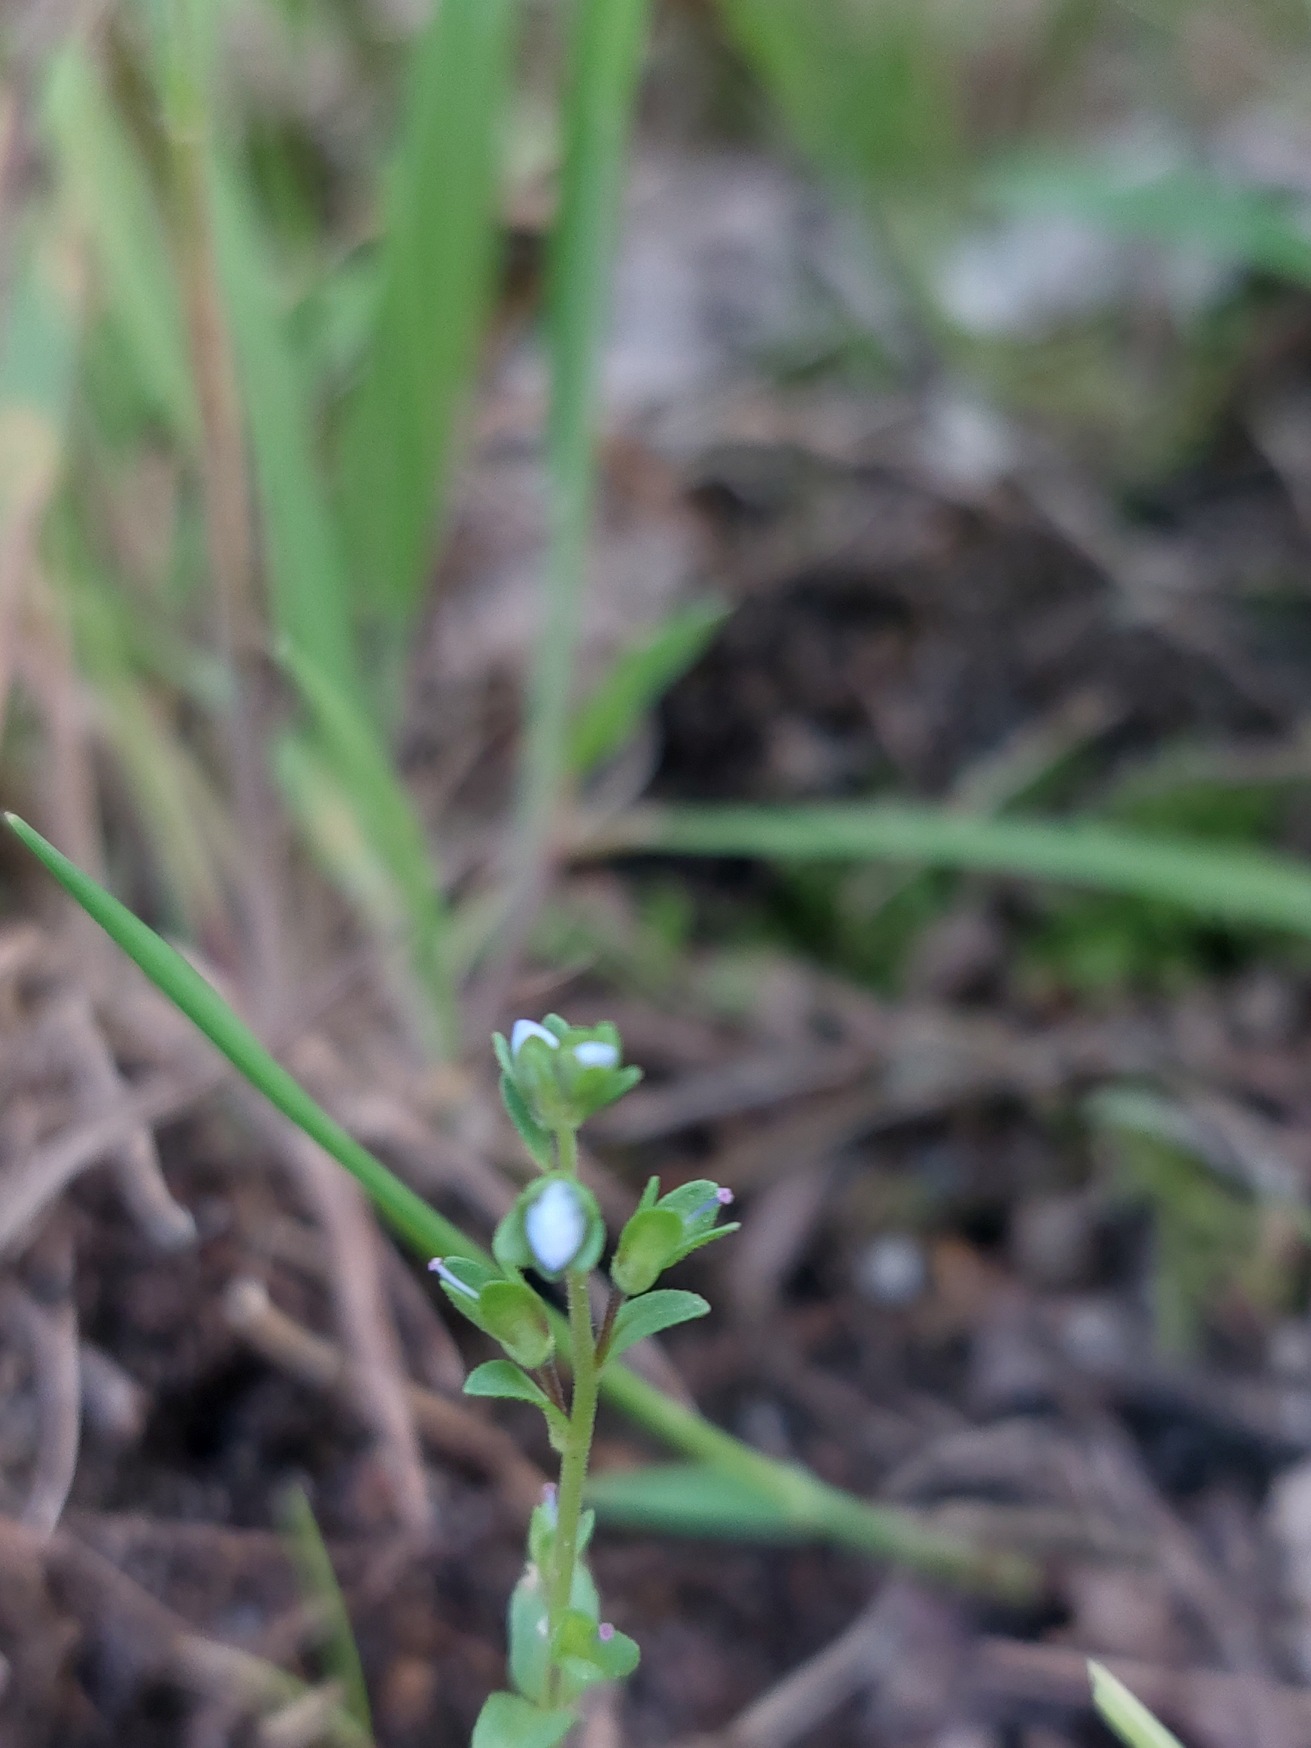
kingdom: Plantae
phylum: Tracheophyta
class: Magnoliopsida
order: Lamiales
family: Plantaginaceae
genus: Veronica
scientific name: Veronica serpyllifolia
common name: Glat ærenpris
